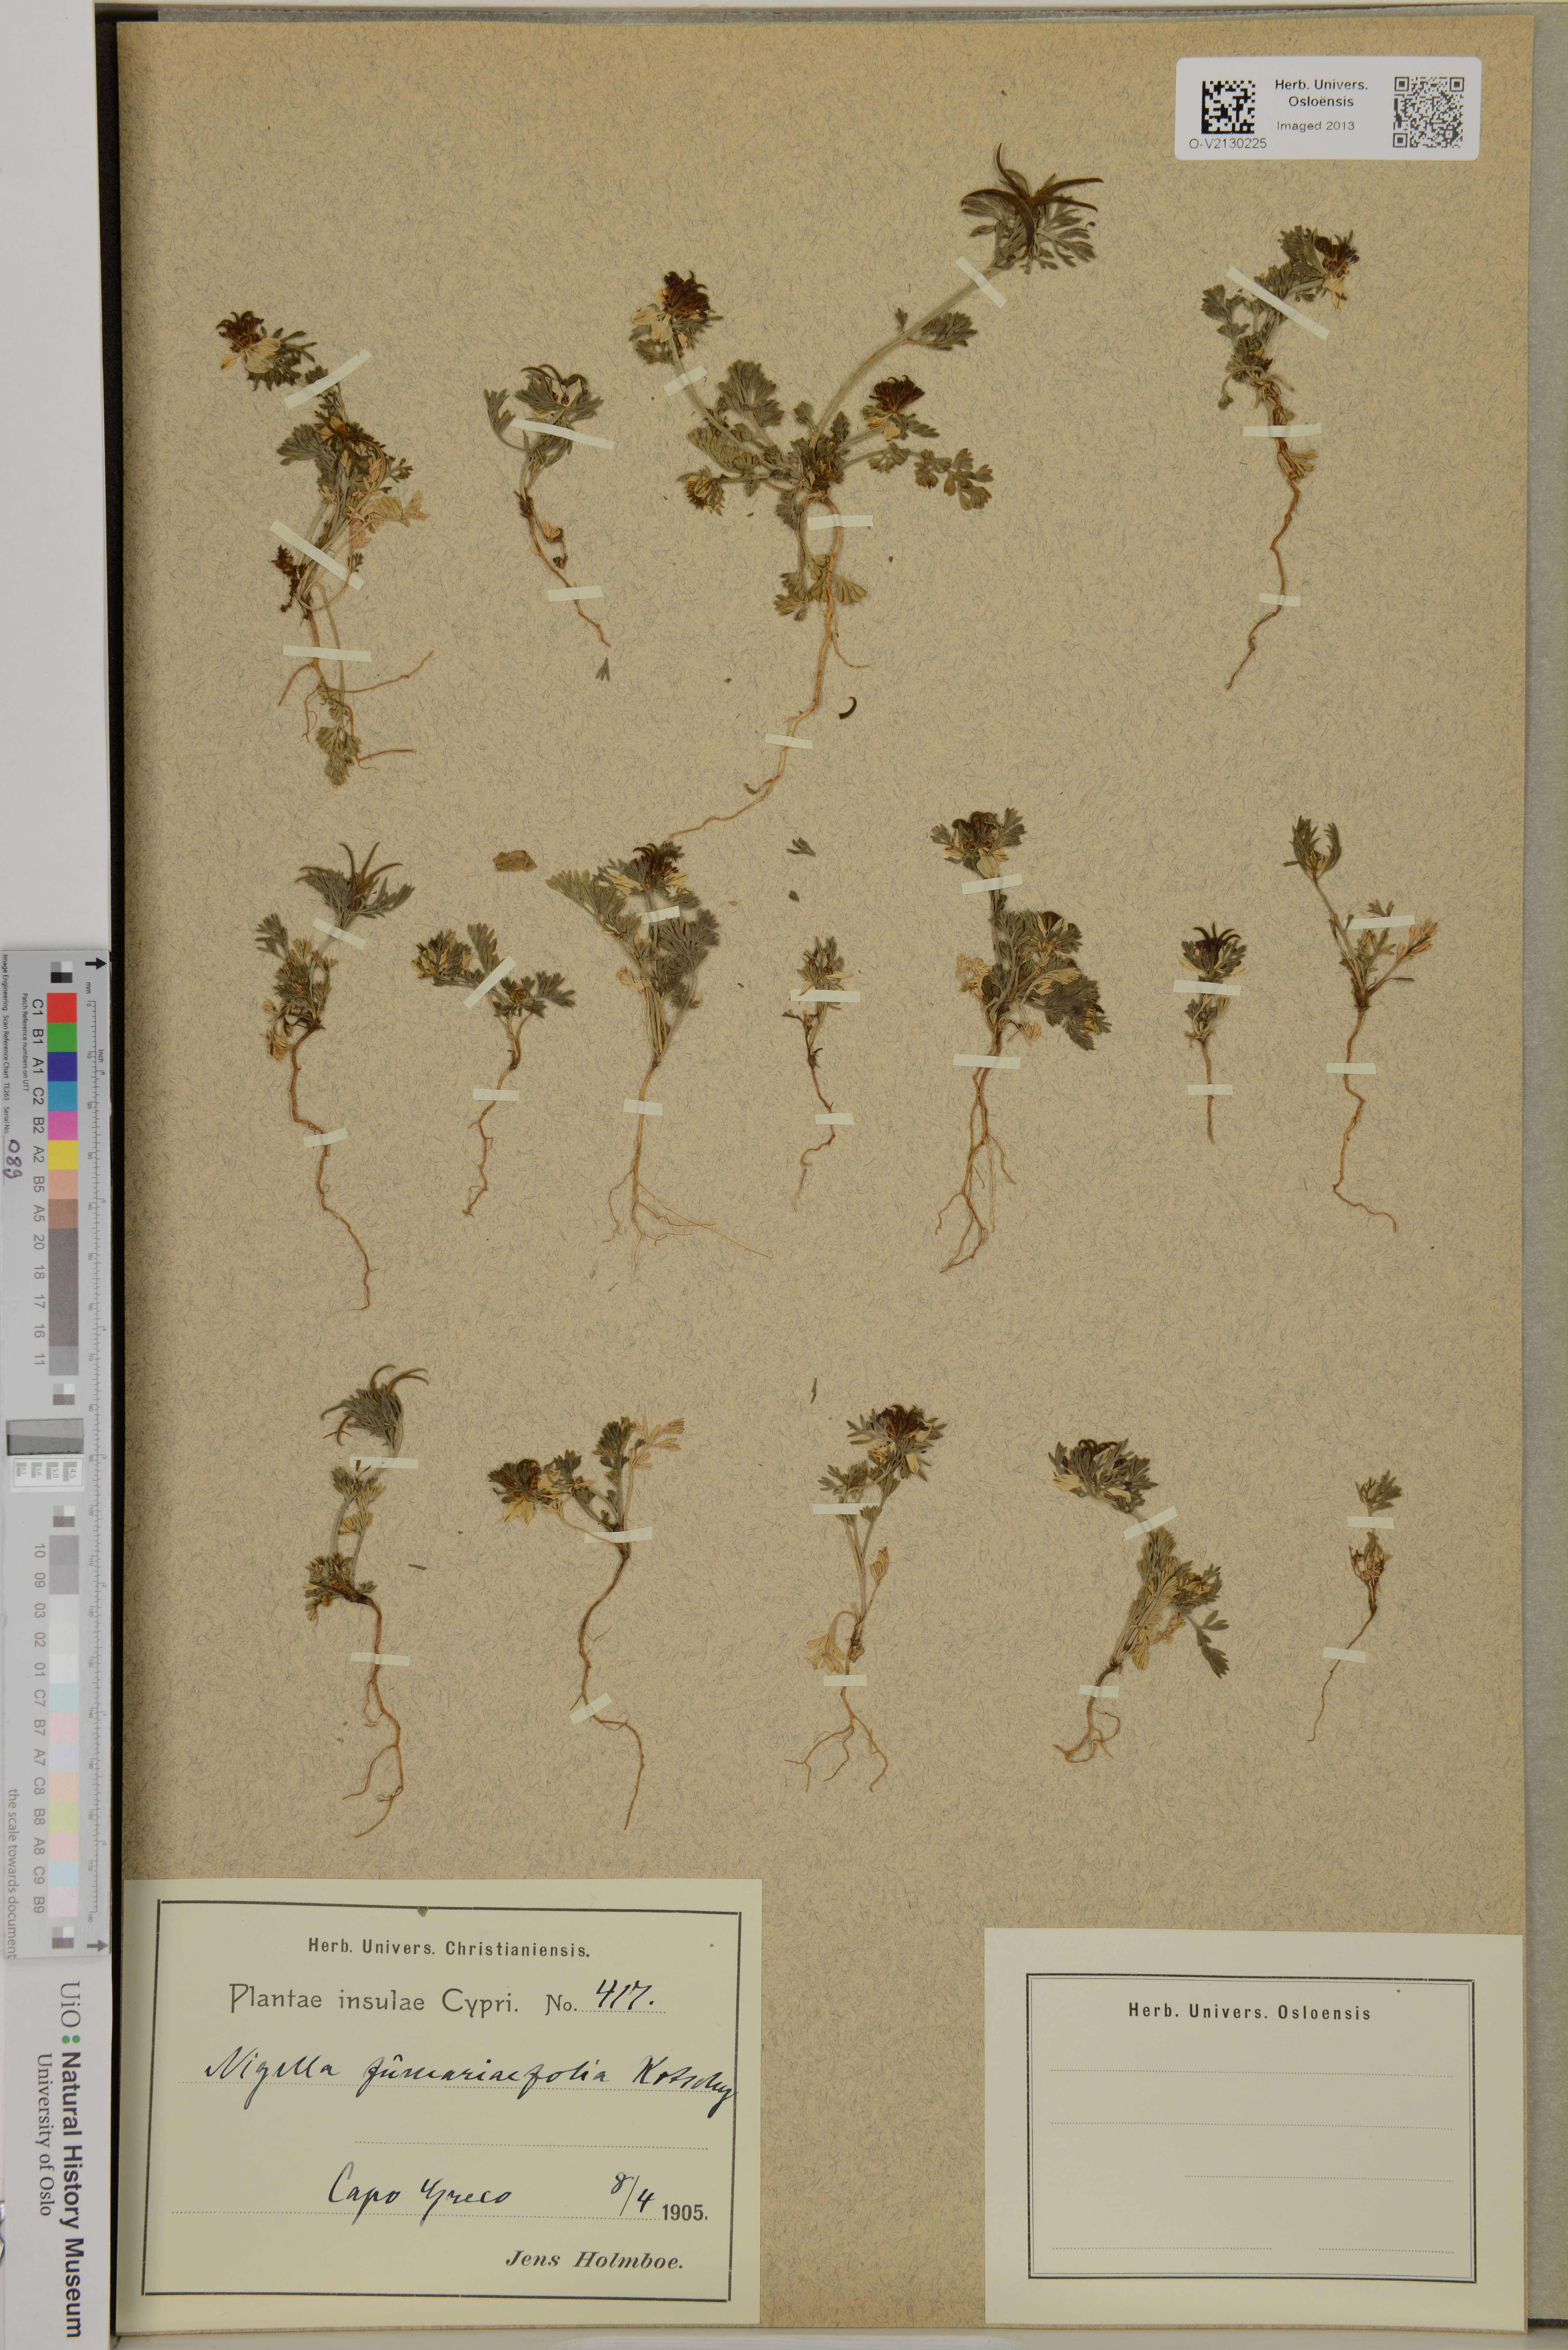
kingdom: Plantae
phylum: Tracheophyta
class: Magnoliopsida
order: Ranunculales
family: Ranunculaceae
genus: Nigella
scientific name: Nigella fumariifola
